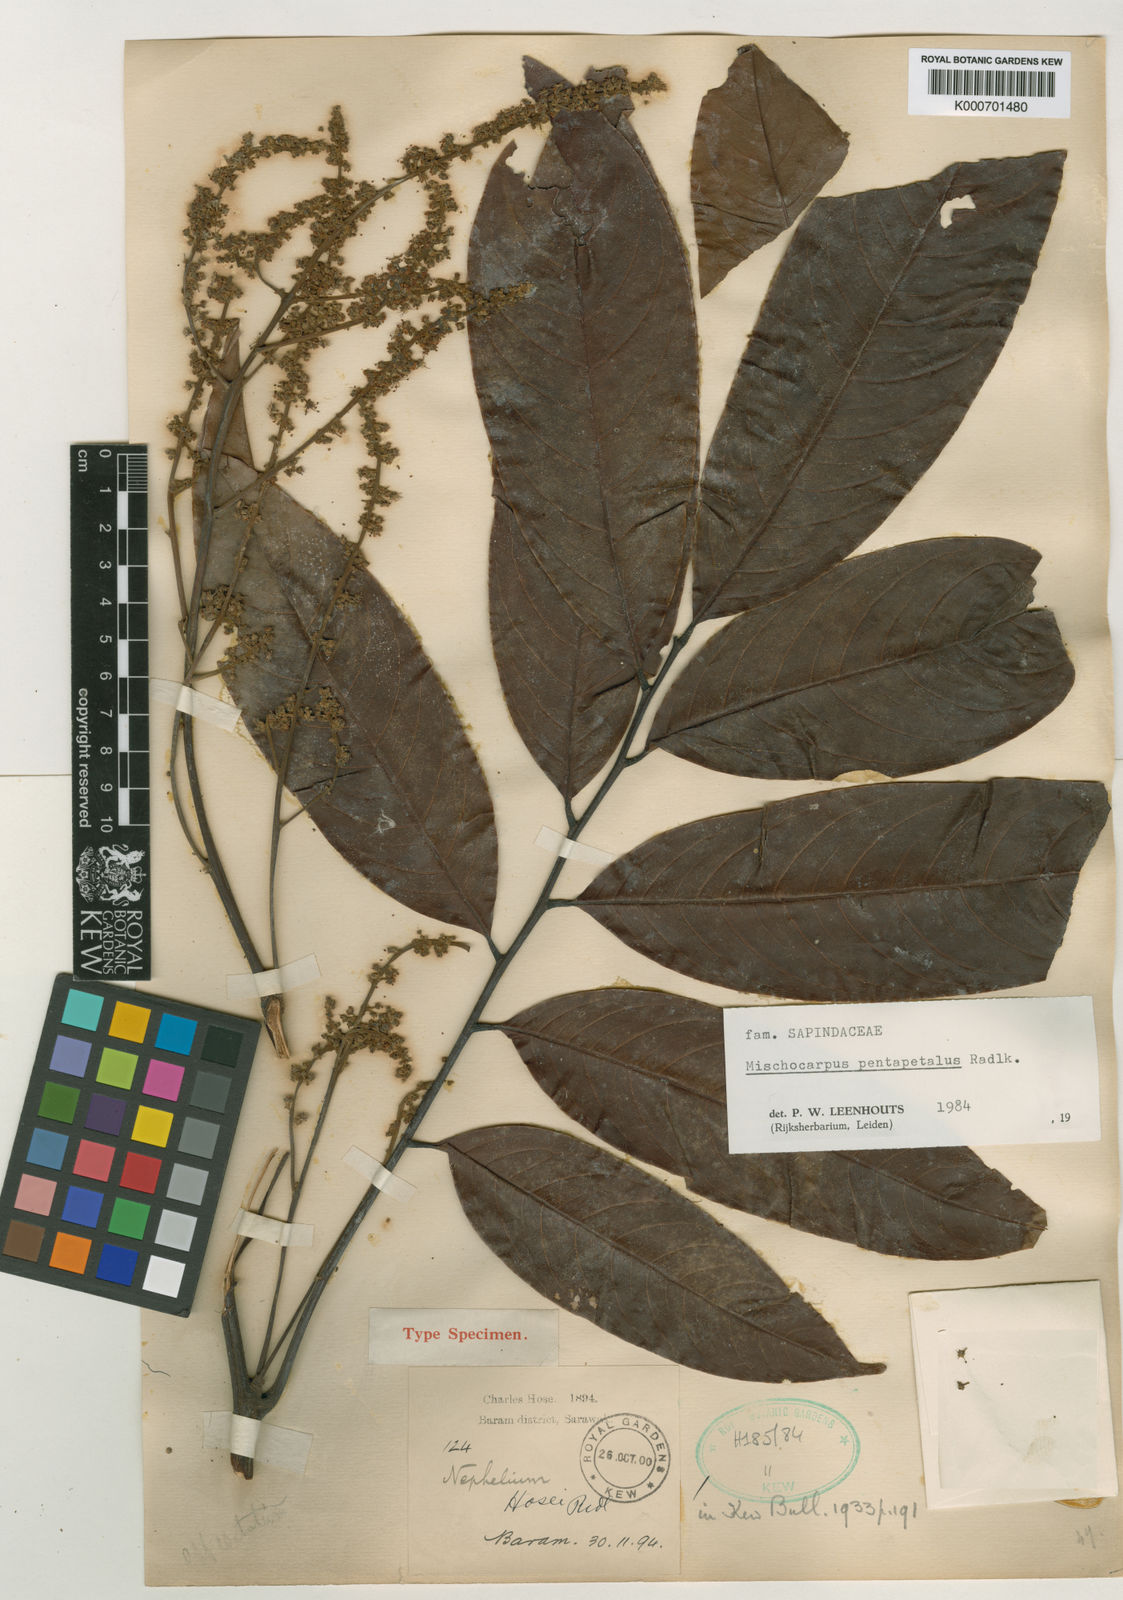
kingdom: Plantae
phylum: Tracheophyta
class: Magnoliopsida
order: Sapindales
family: Sapindaceae
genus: Mischocarpus
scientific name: Mischocarpus pentapetalus
